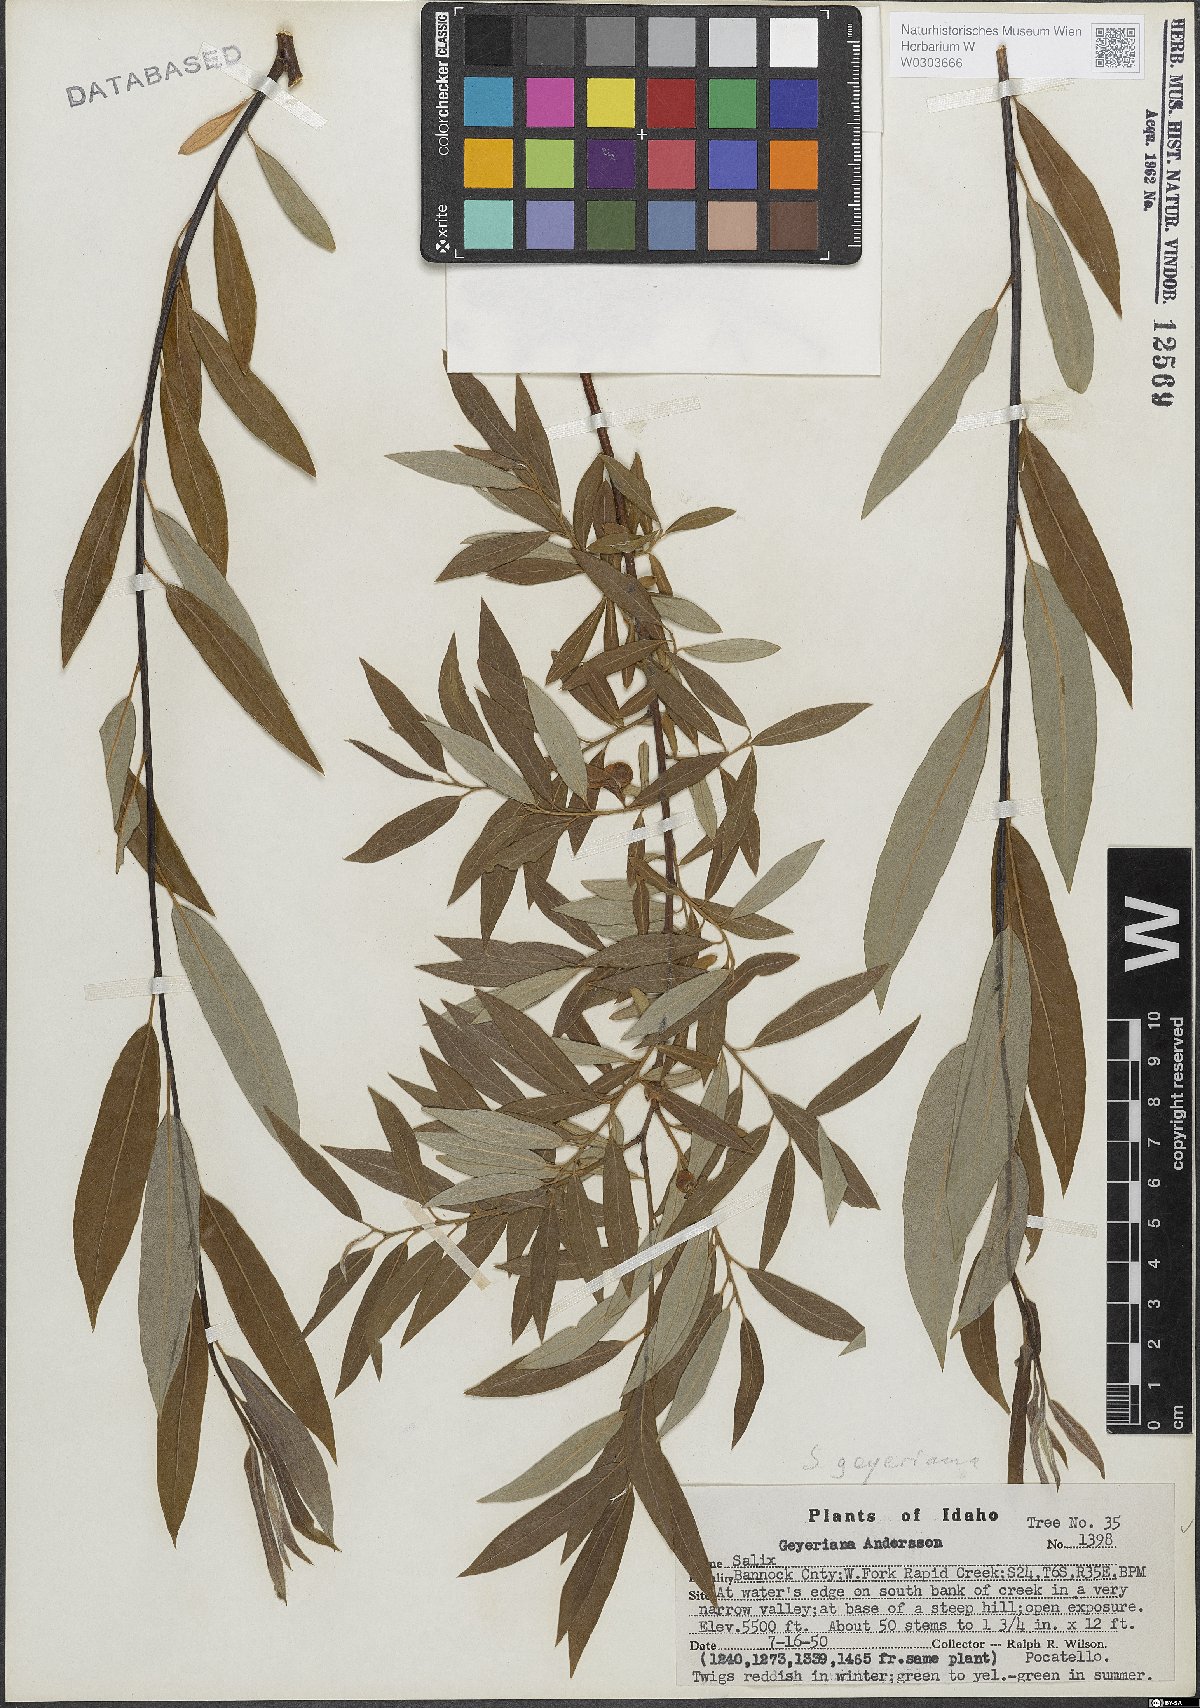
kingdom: Plantae
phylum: Tracheophyta
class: Magnoliopsida
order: Malpighiales
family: Salicaceae
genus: Salix
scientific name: Salix geyeriana
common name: Geyer's willow
